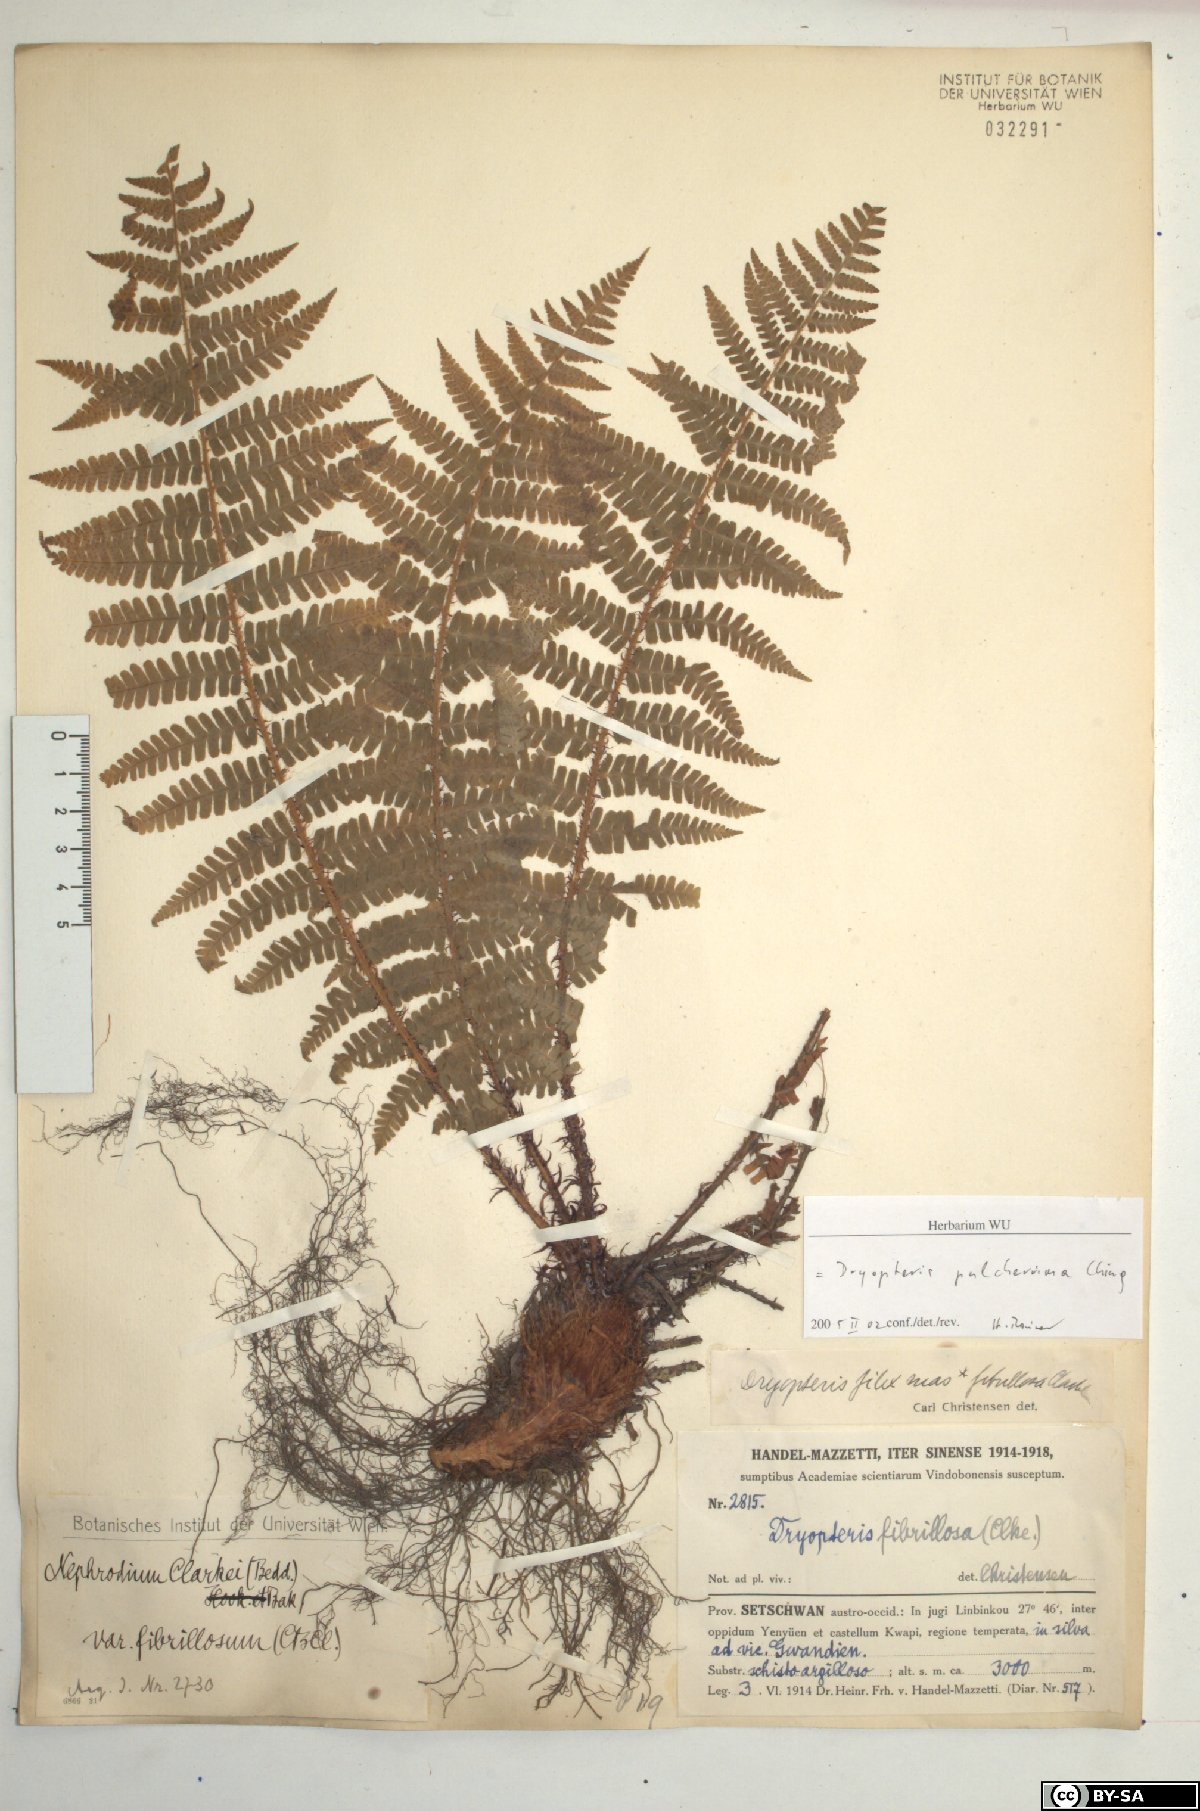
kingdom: Plantae
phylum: Tracheophyta
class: Polypodiopsida
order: Polypodiales
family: Dryopteridaceae
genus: Dryopteris
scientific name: Dryopteris xanthomelas
